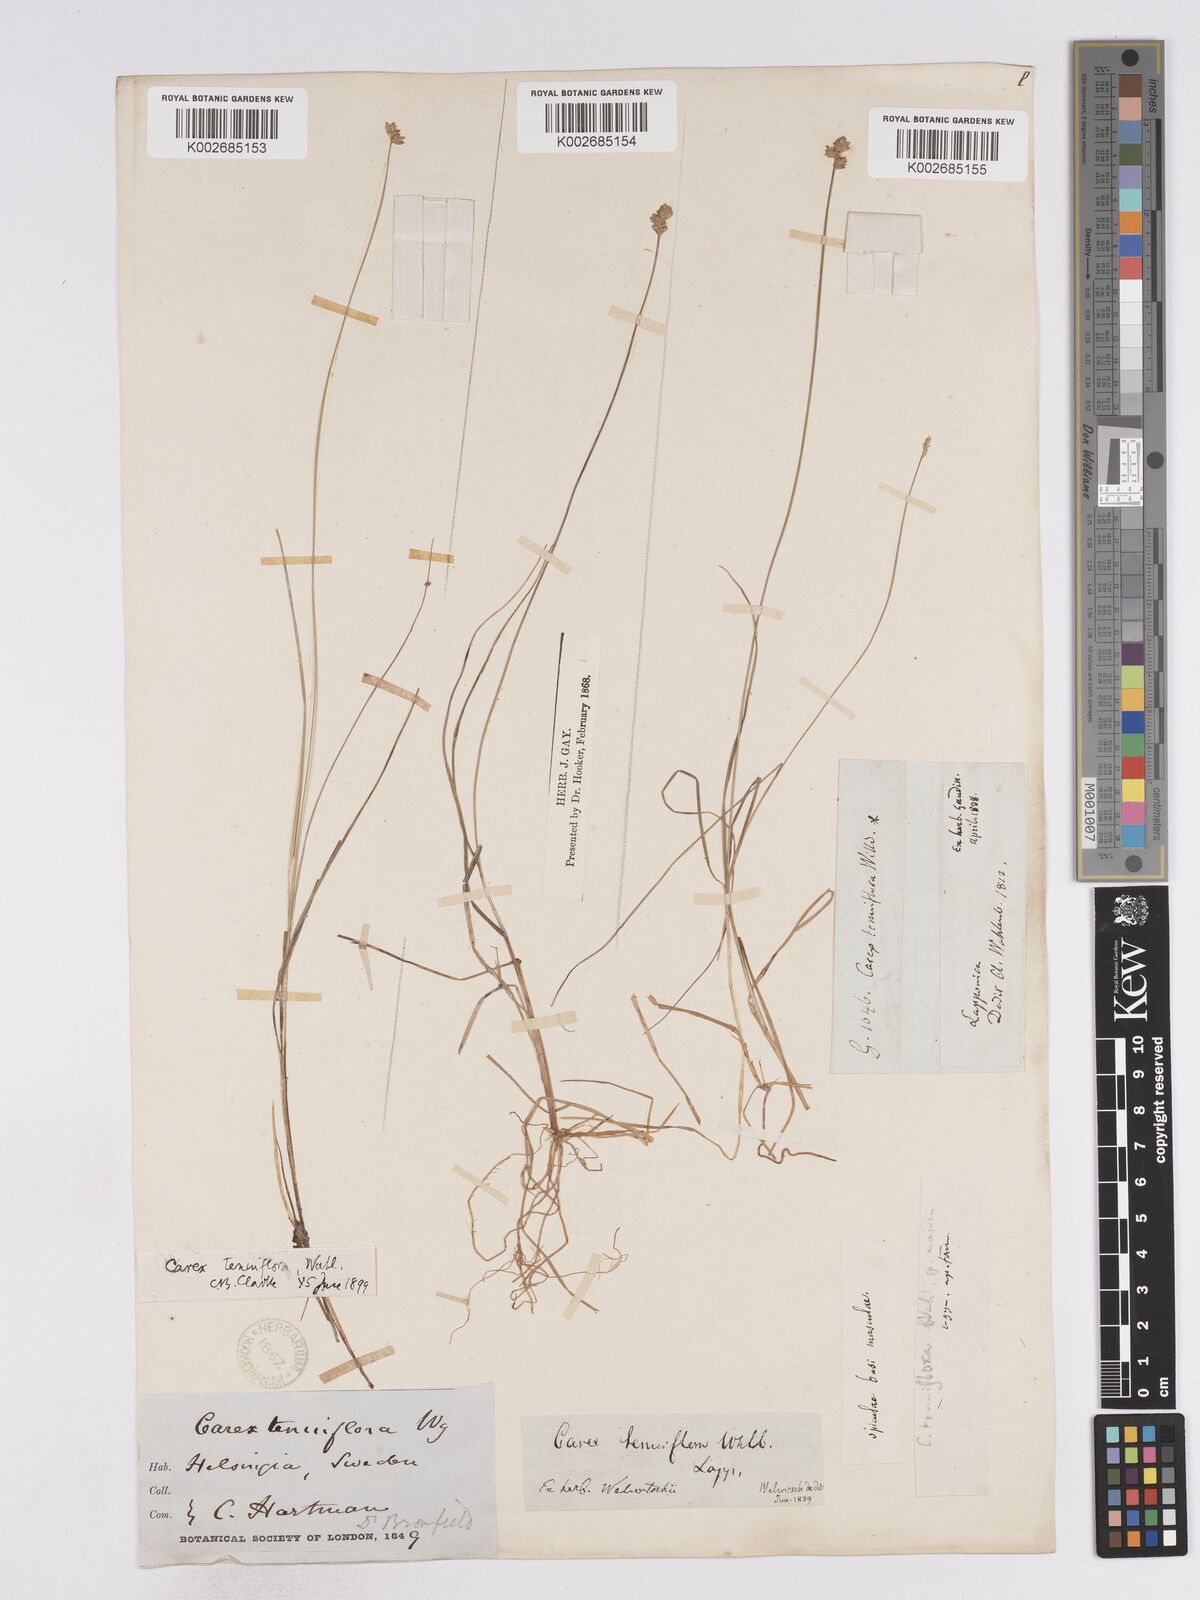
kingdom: Plantae
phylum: Tracheophyta
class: Liliopsida
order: Poales
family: Cyperaceae
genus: Carex
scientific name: Carex tenuiflora
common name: Sparse-flowered sedge
